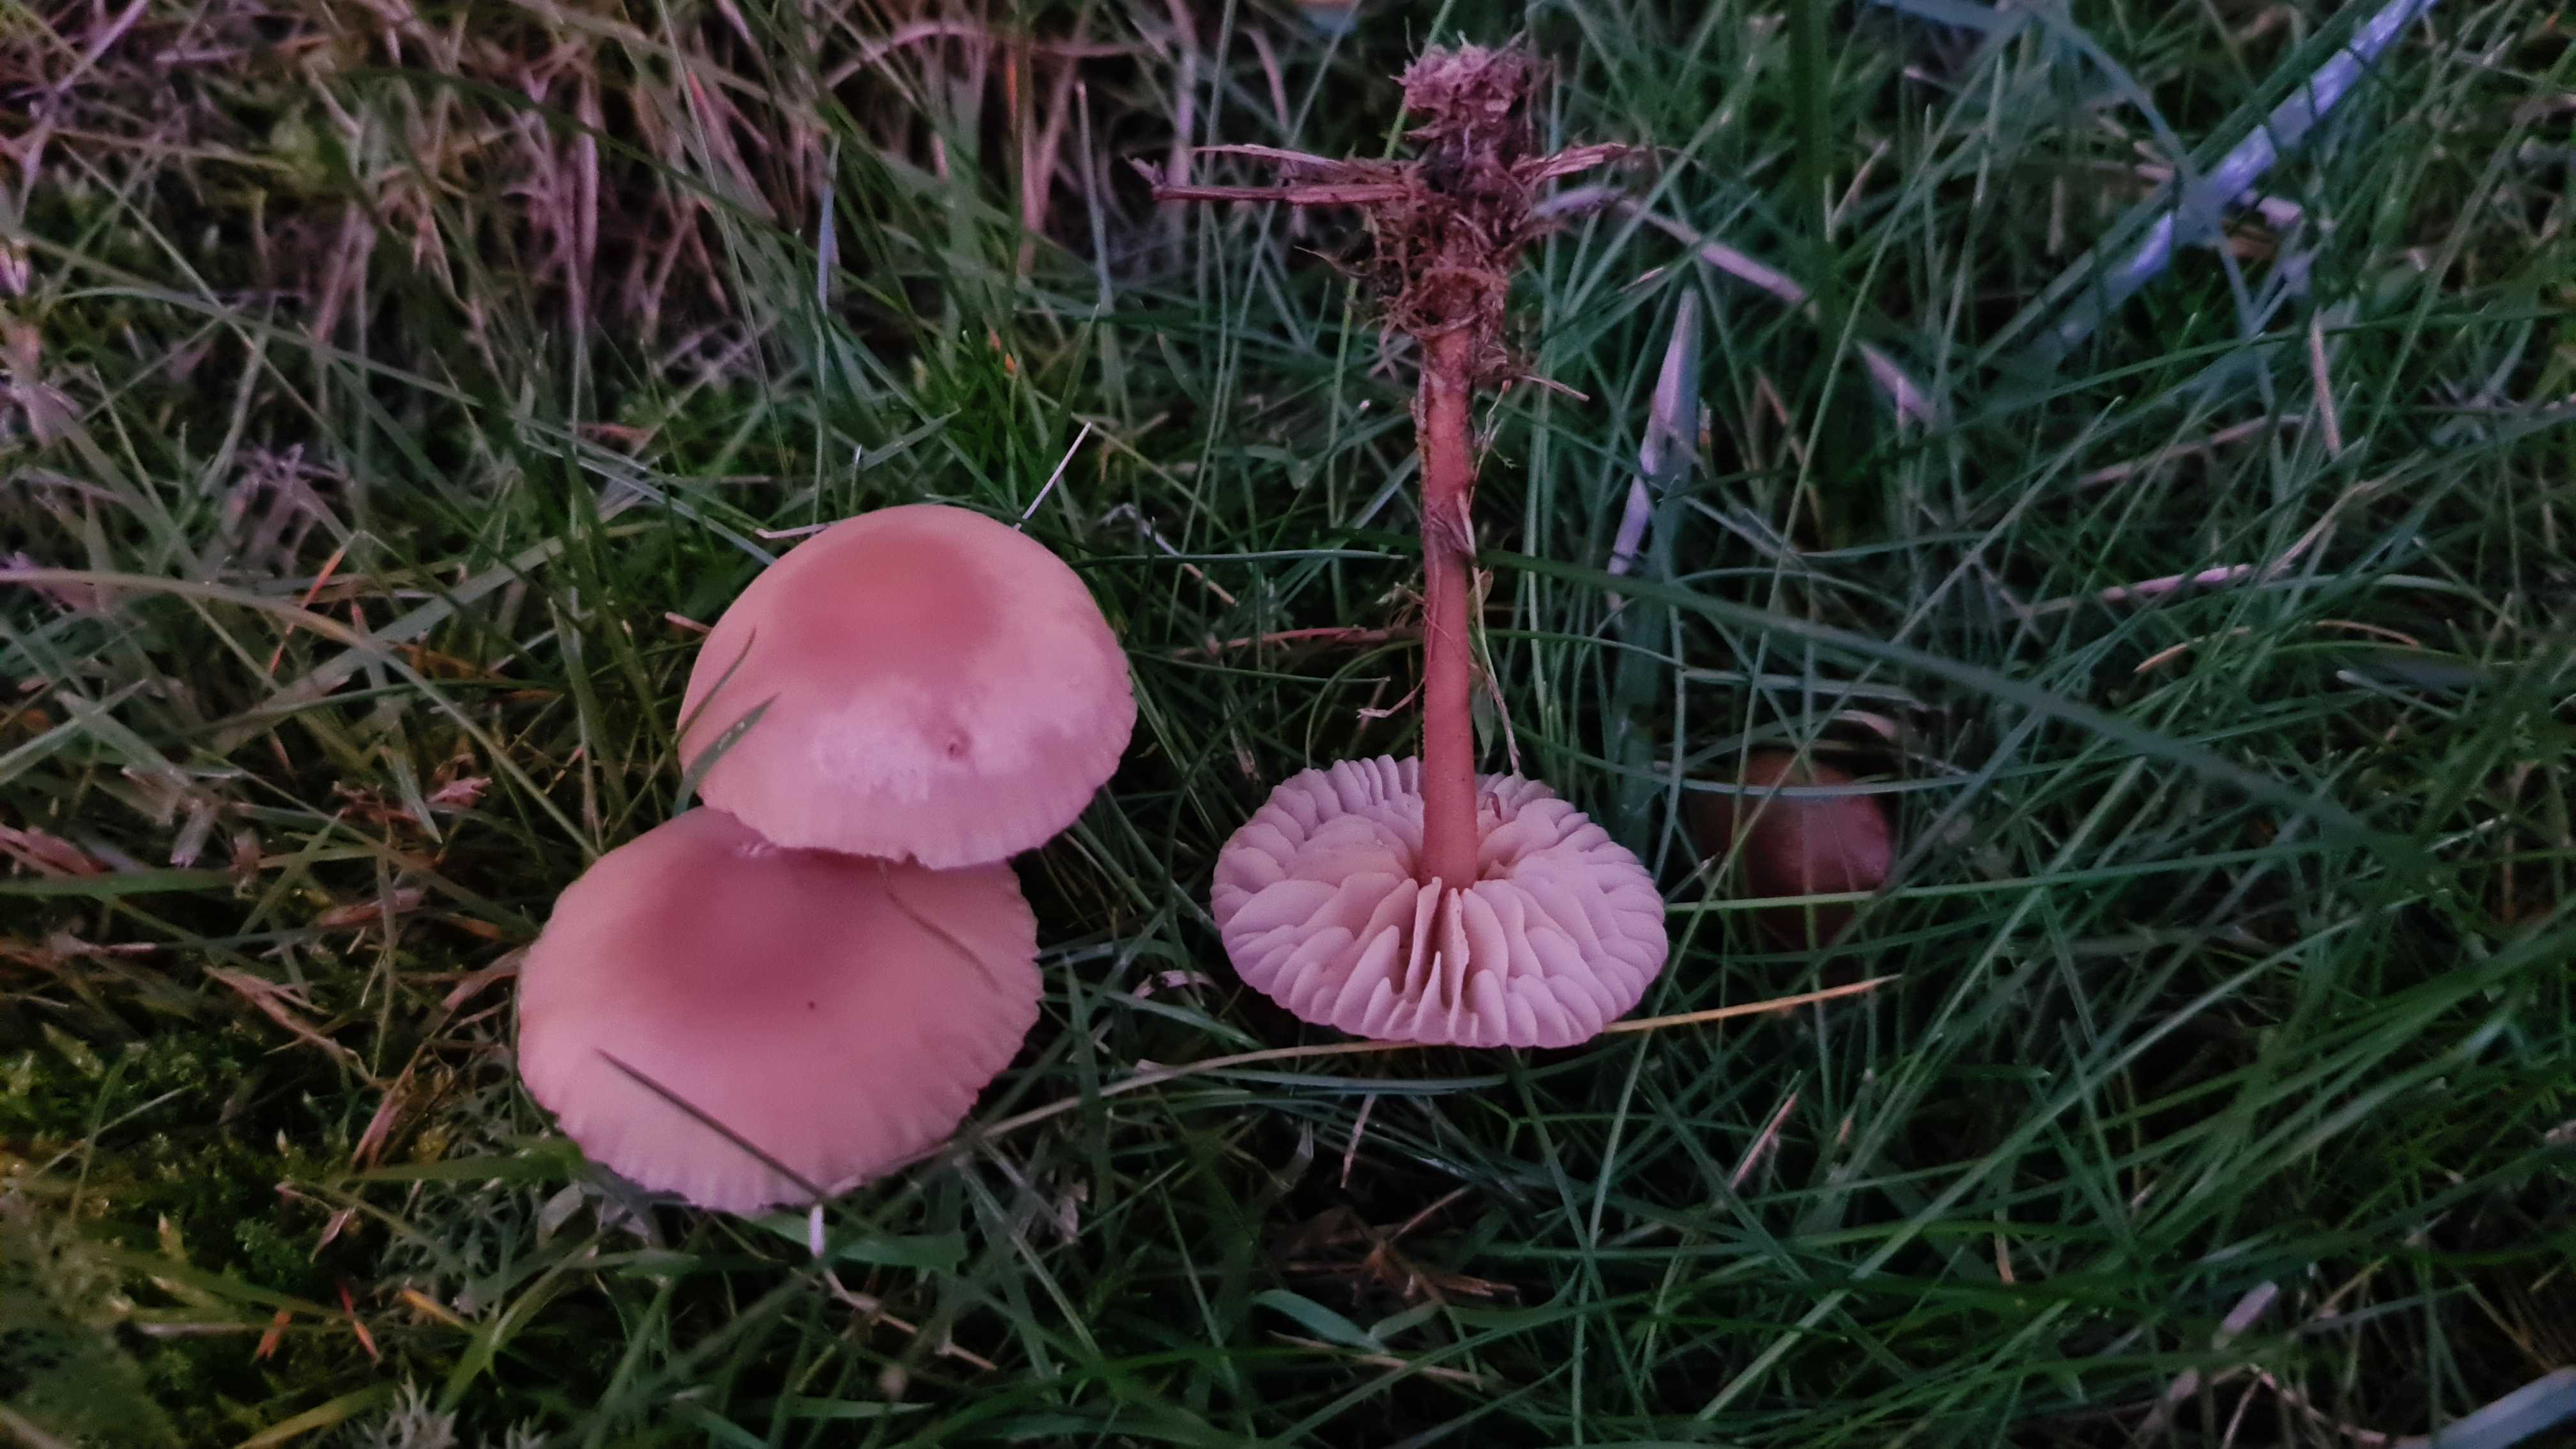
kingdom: Fungi
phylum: Basidiomycota
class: Agaricomycetes
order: Agaricales
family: Marasmiaceae
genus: Marasmius
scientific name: Marasmius oreades
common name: elledans-bruskhat
